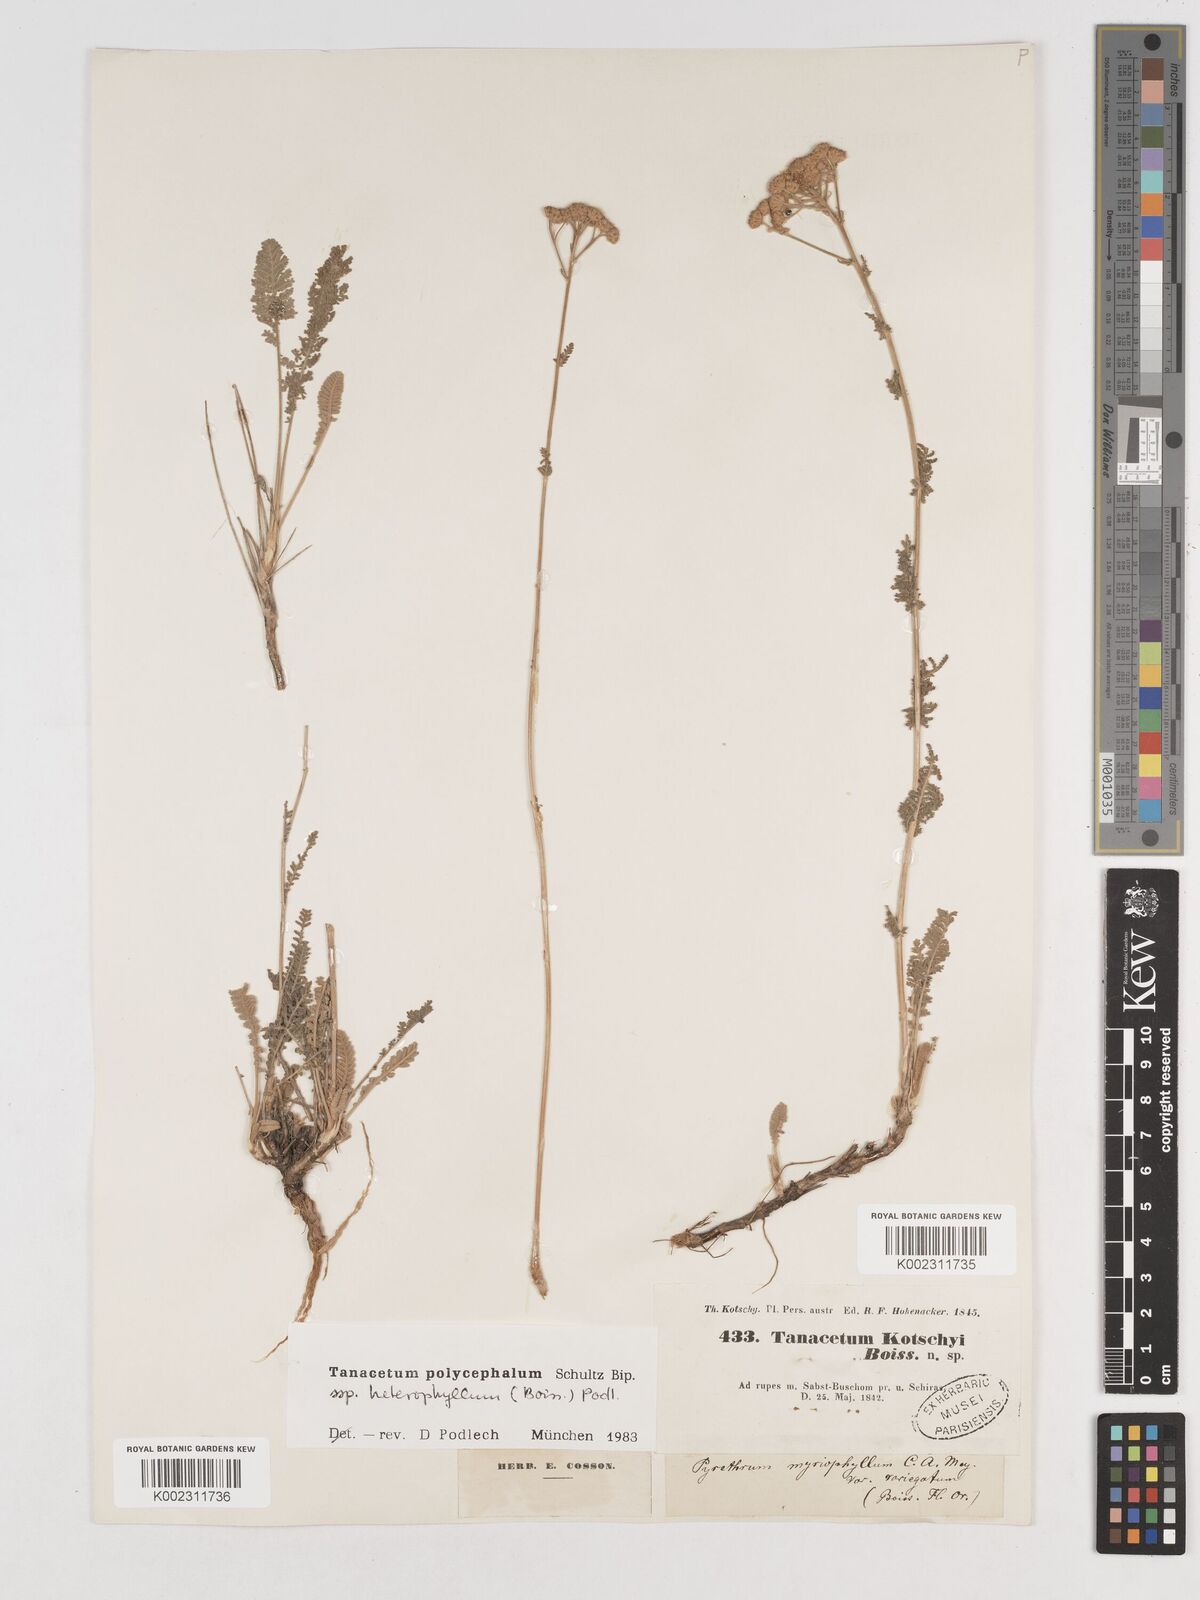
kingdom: Plantae
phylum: Tracheophyta
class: Magnoliopsida
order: Asterales
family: Asteraceae
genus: Tanacetum
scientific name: Tanacetum polycephalum
